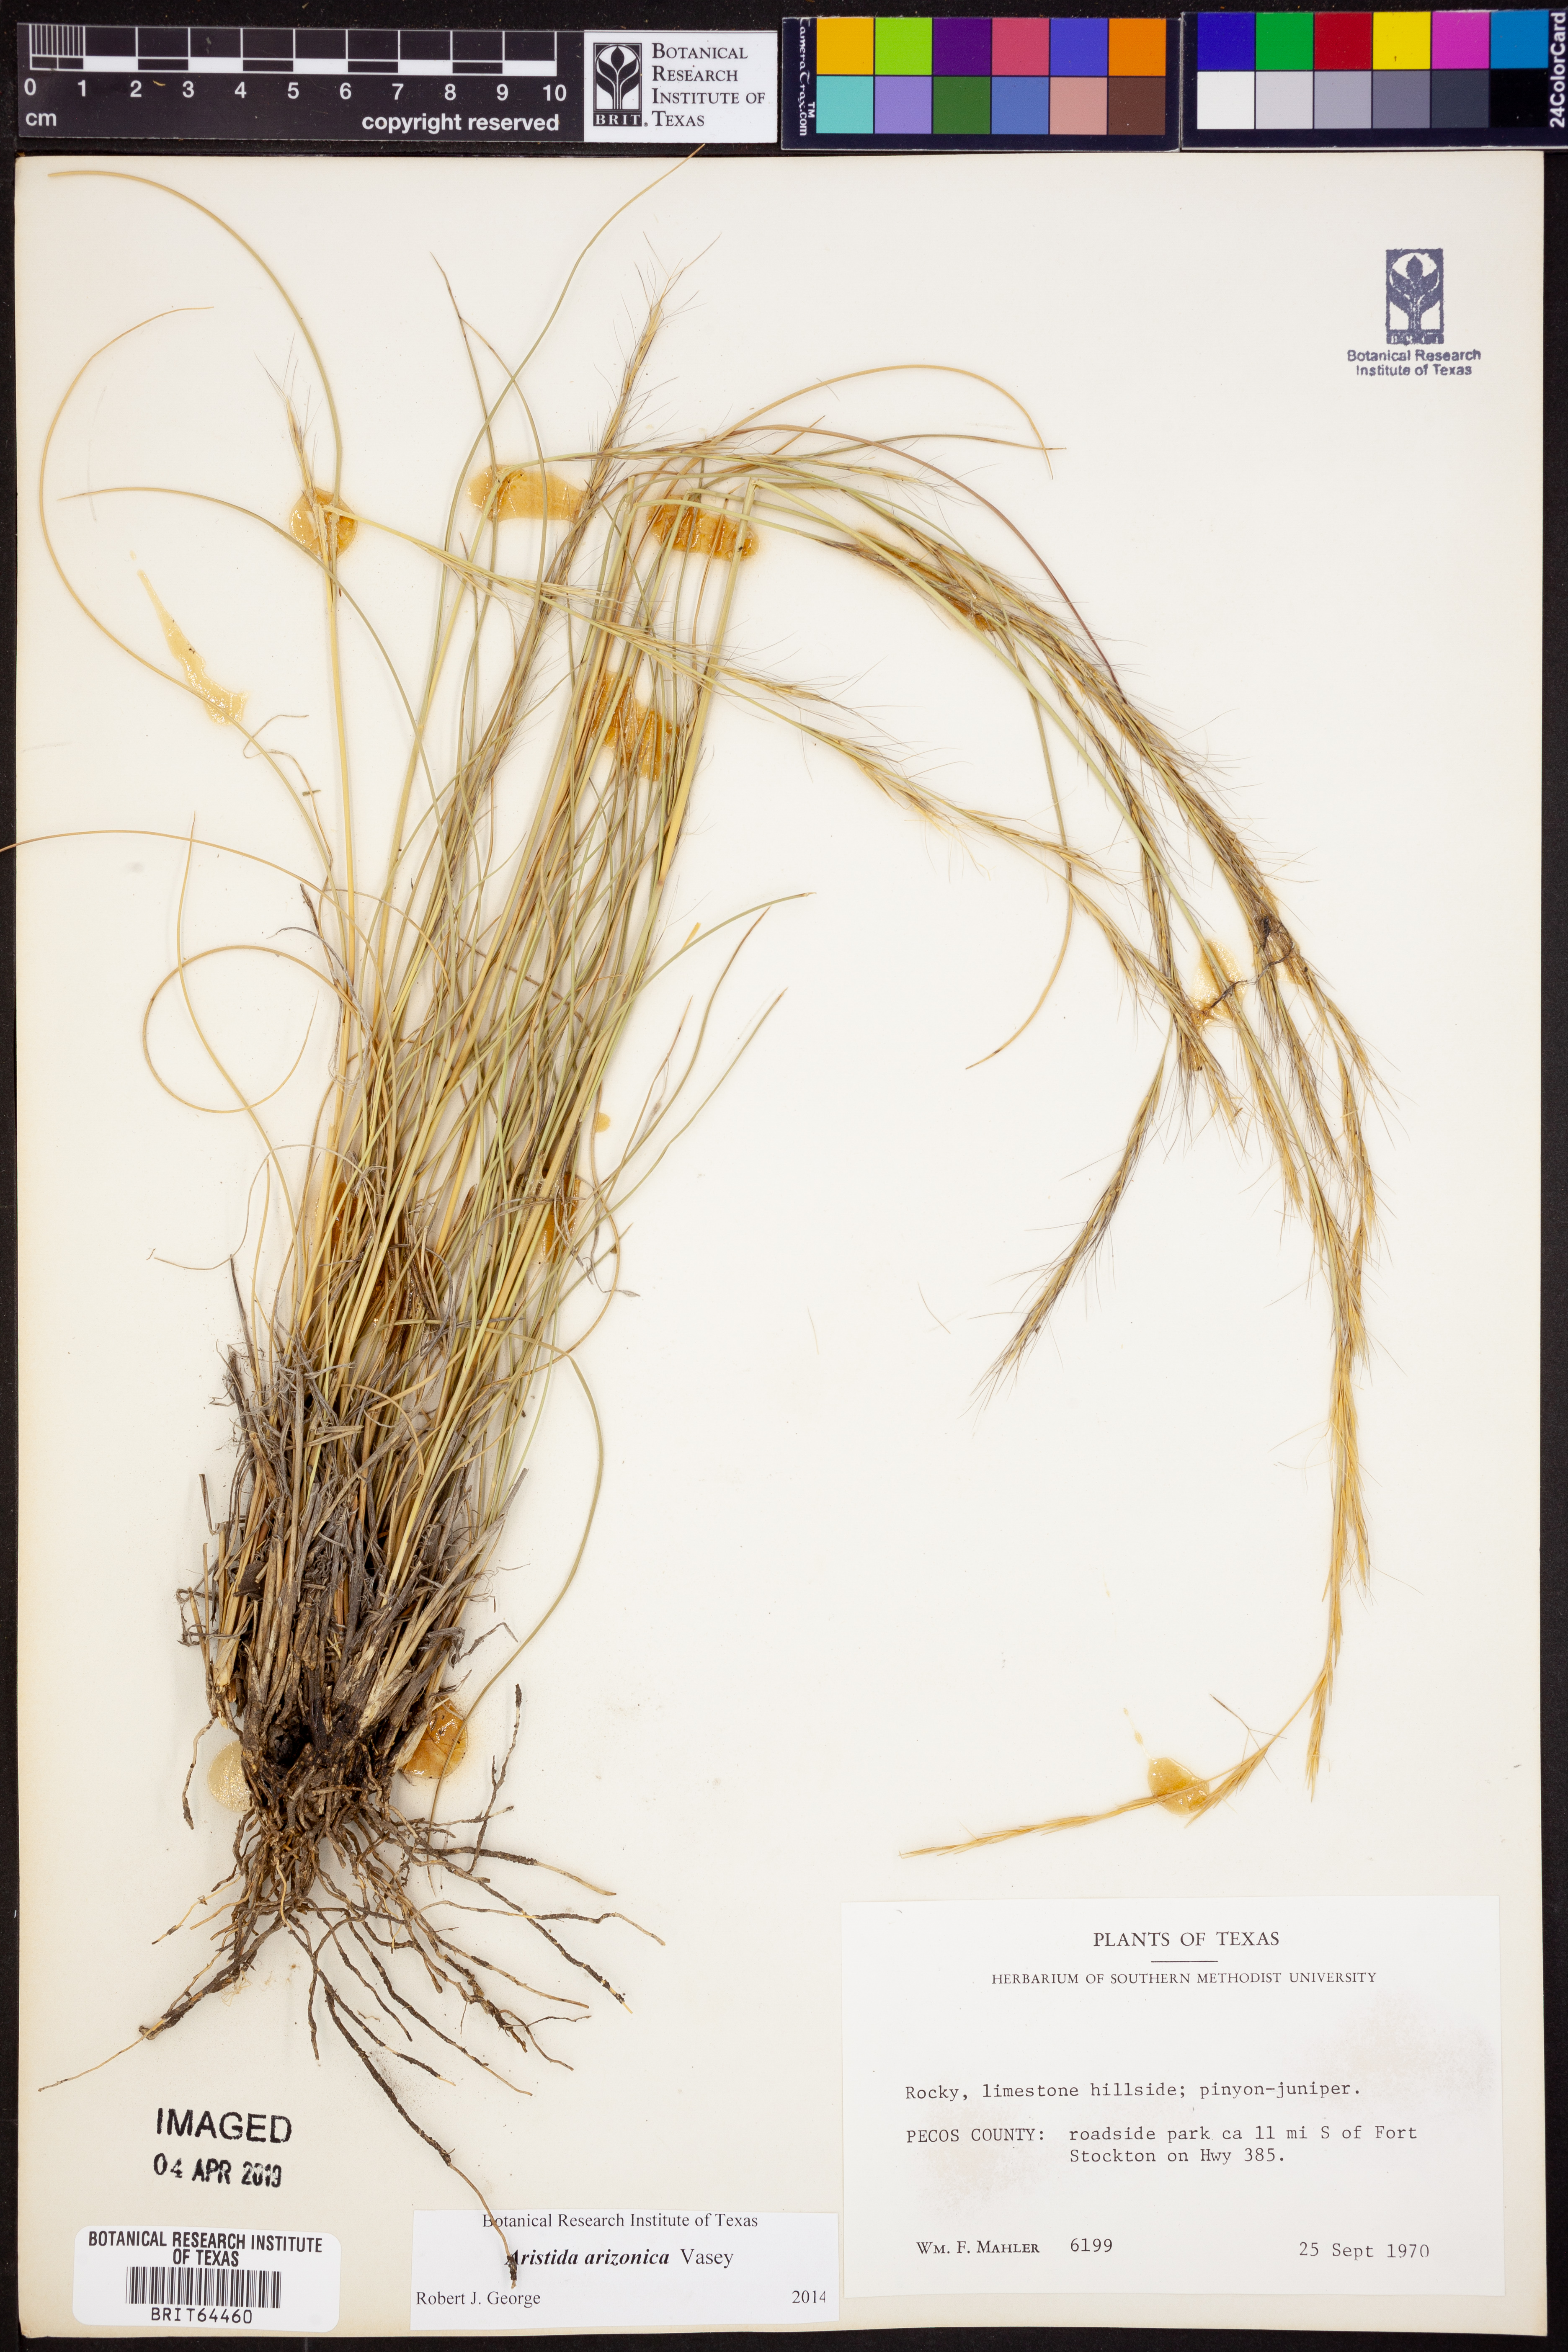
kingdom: Plantae
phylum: Tracheophyta
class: Liliopsida
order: Poales
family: Poaceae
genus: Aristida
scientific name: Aristida arizonica
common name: Arizona threeawn
